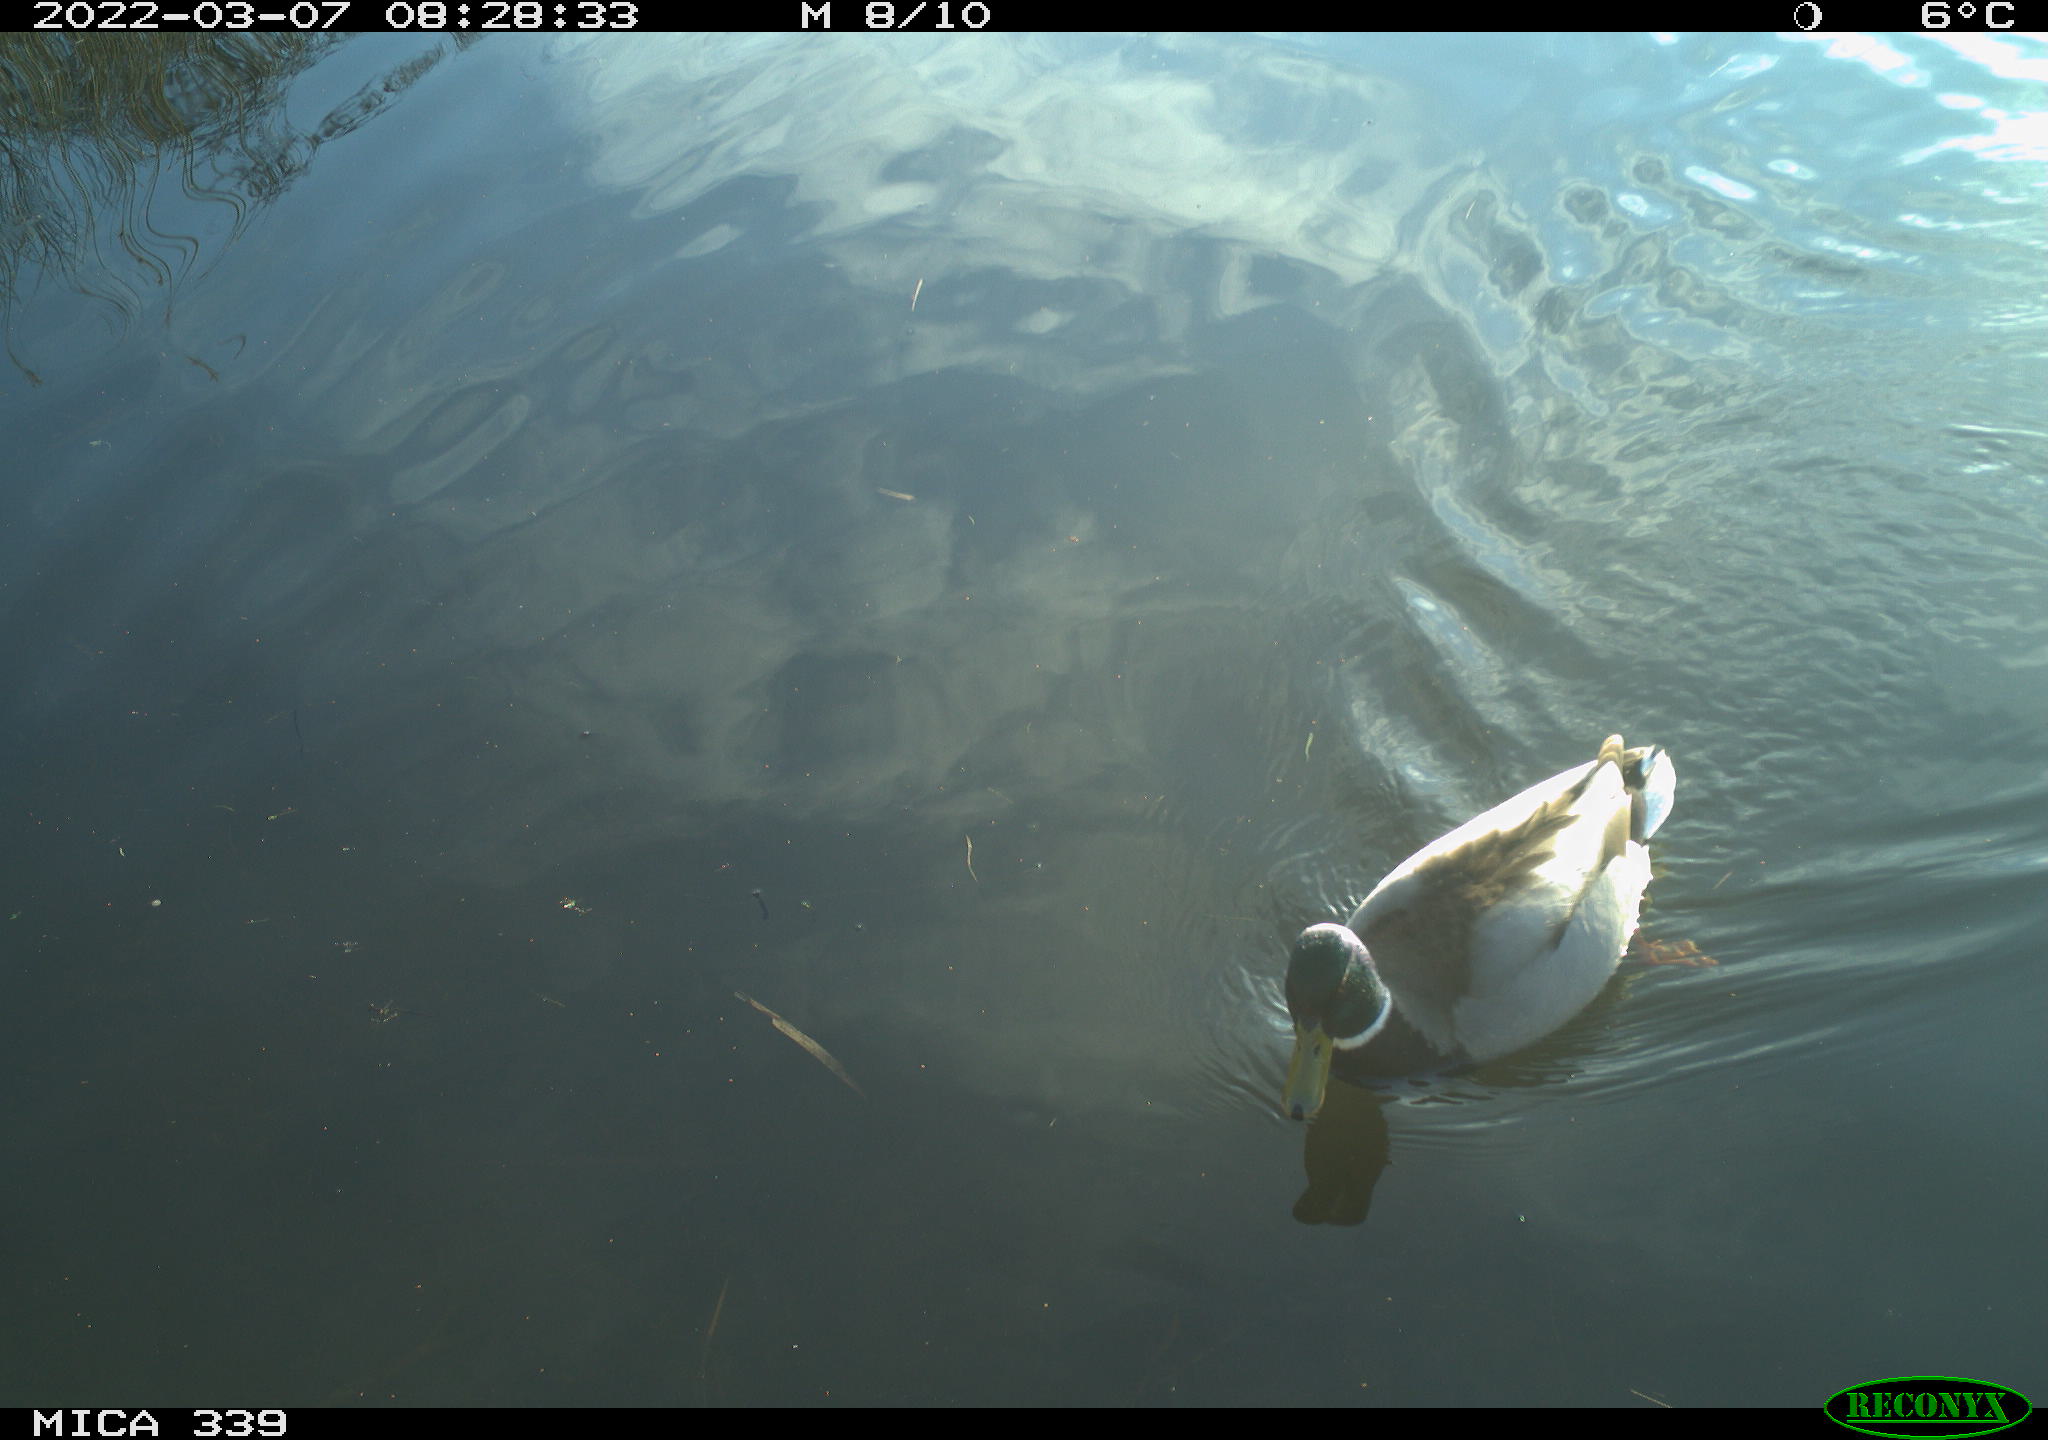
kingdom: Animalia
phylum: Chordata
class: Aves
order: Anseriformes
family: Anatidae
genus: Anas
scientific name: Anas platyrhynchos
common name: Mallard
